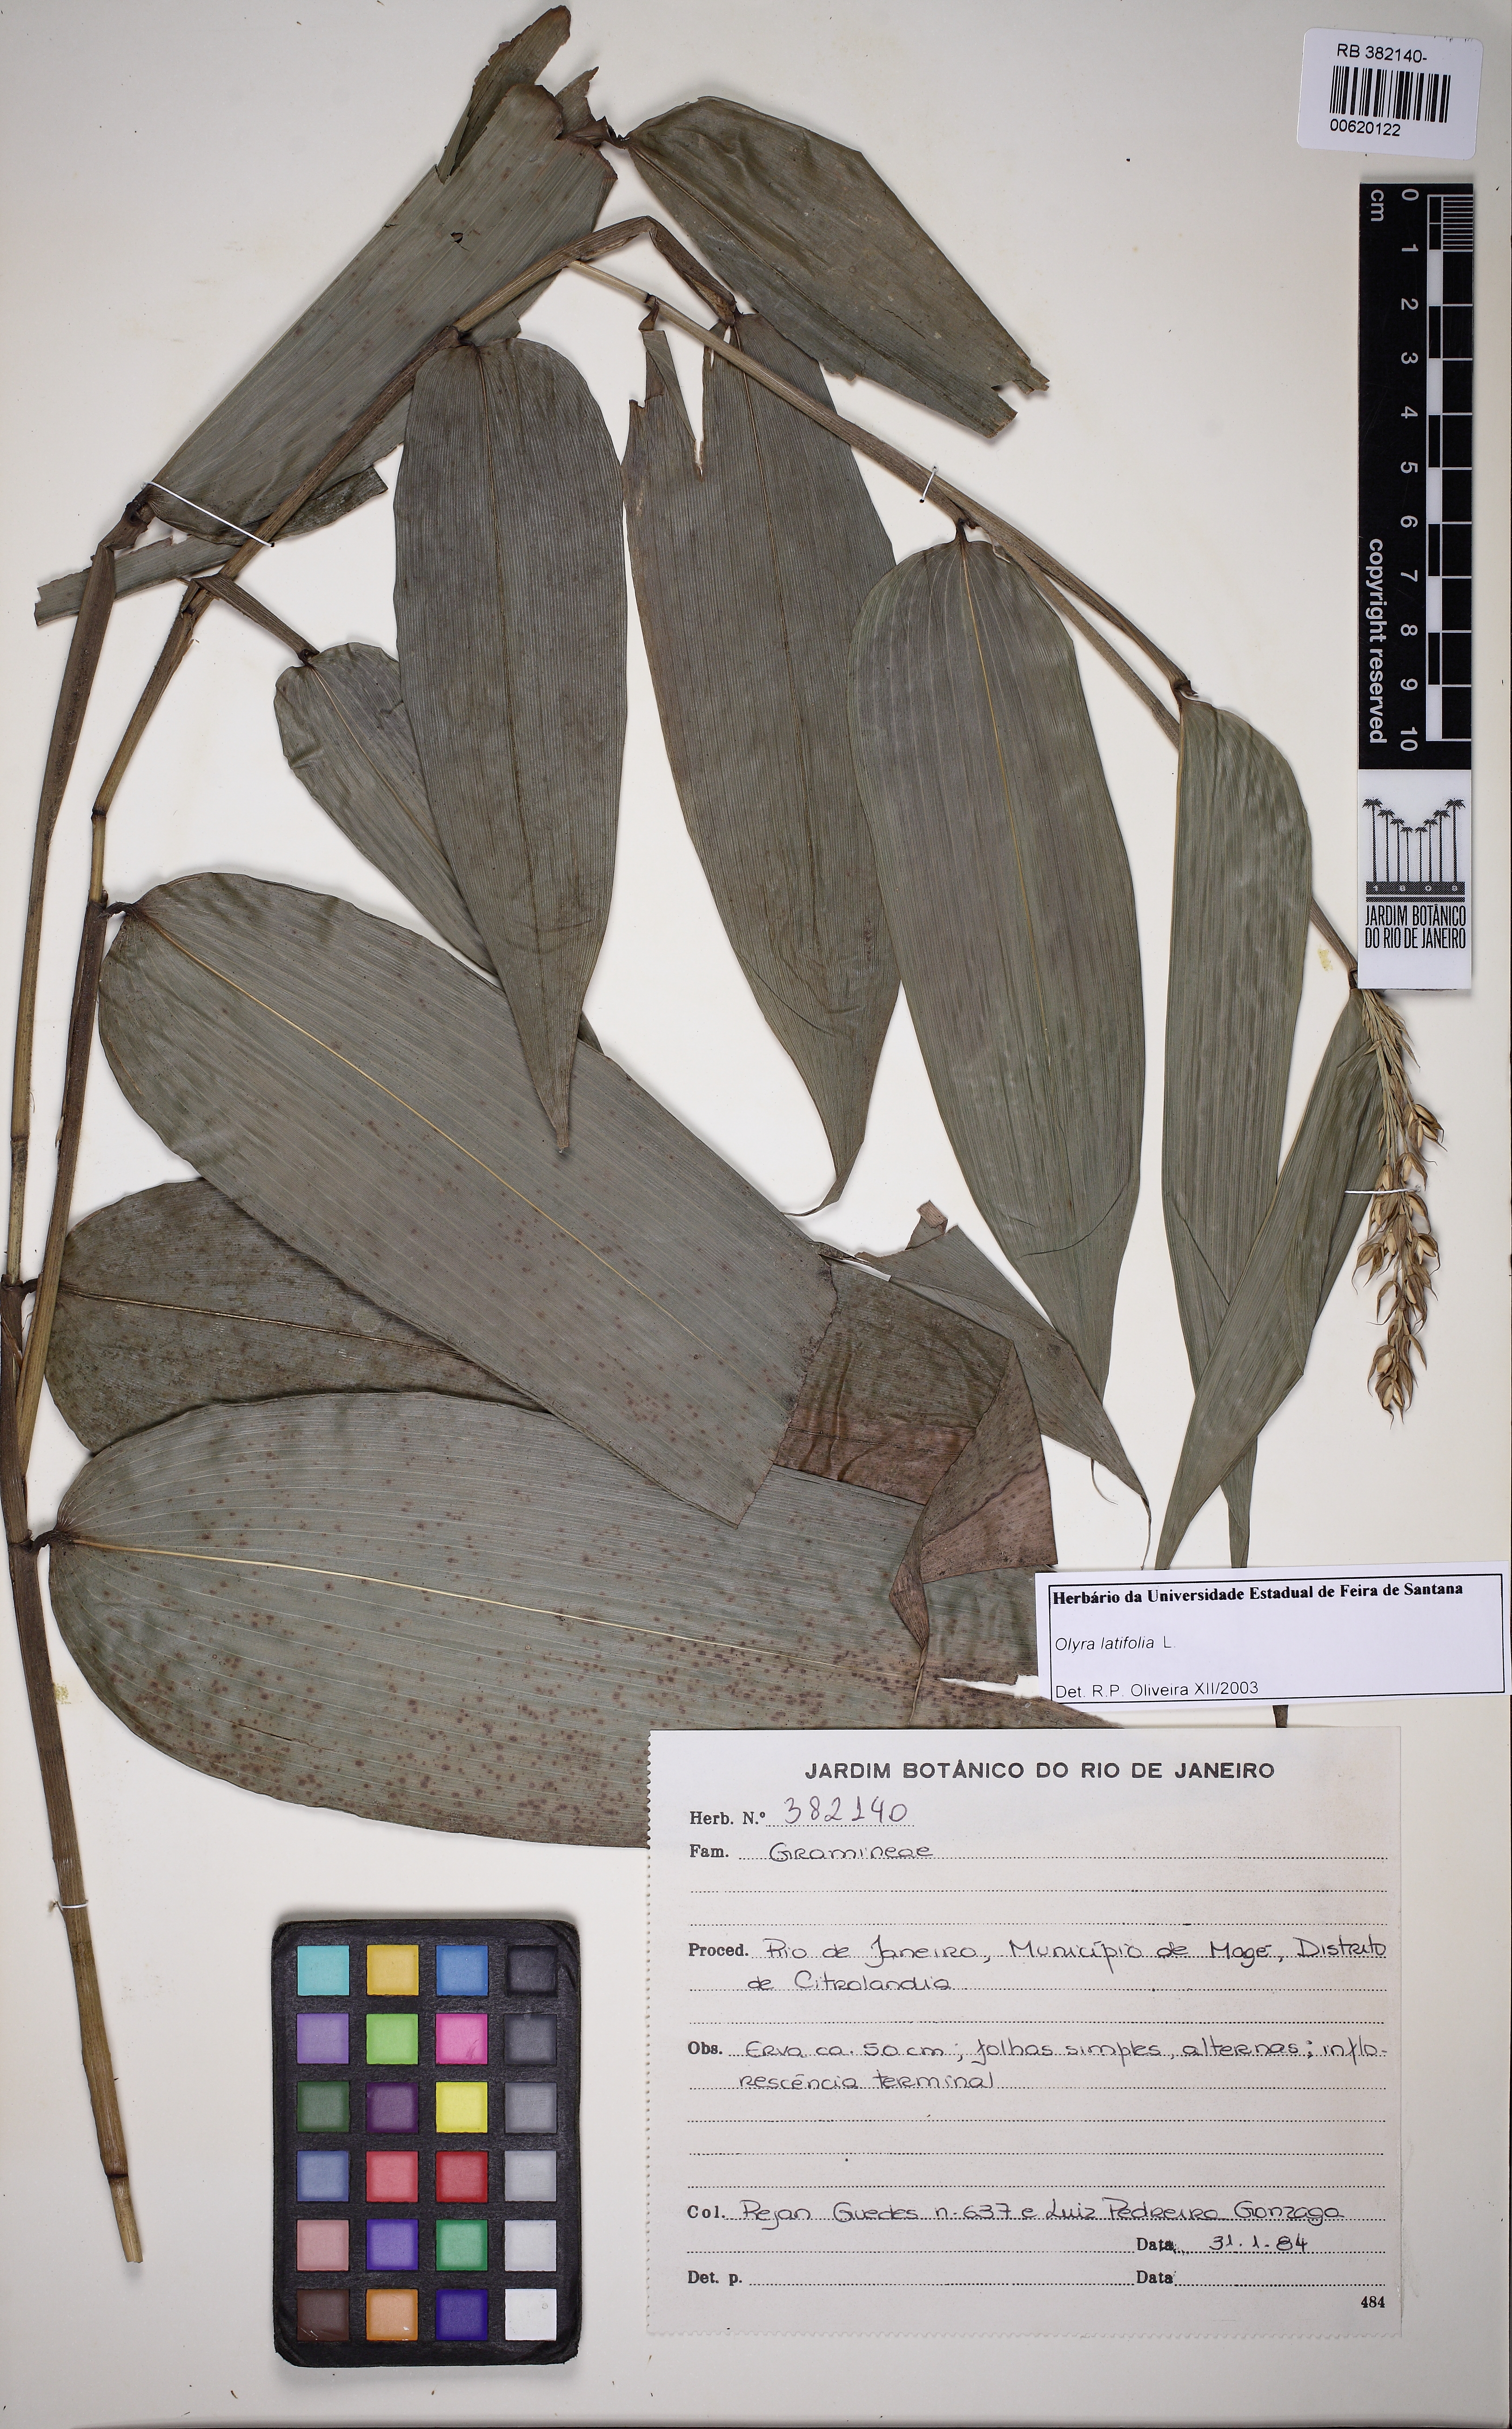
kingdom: Plantae
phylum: Tracheophyta
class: Liliopsida
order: Poales
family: Poaceae
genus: Olyra
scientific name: Olyra latifolia
